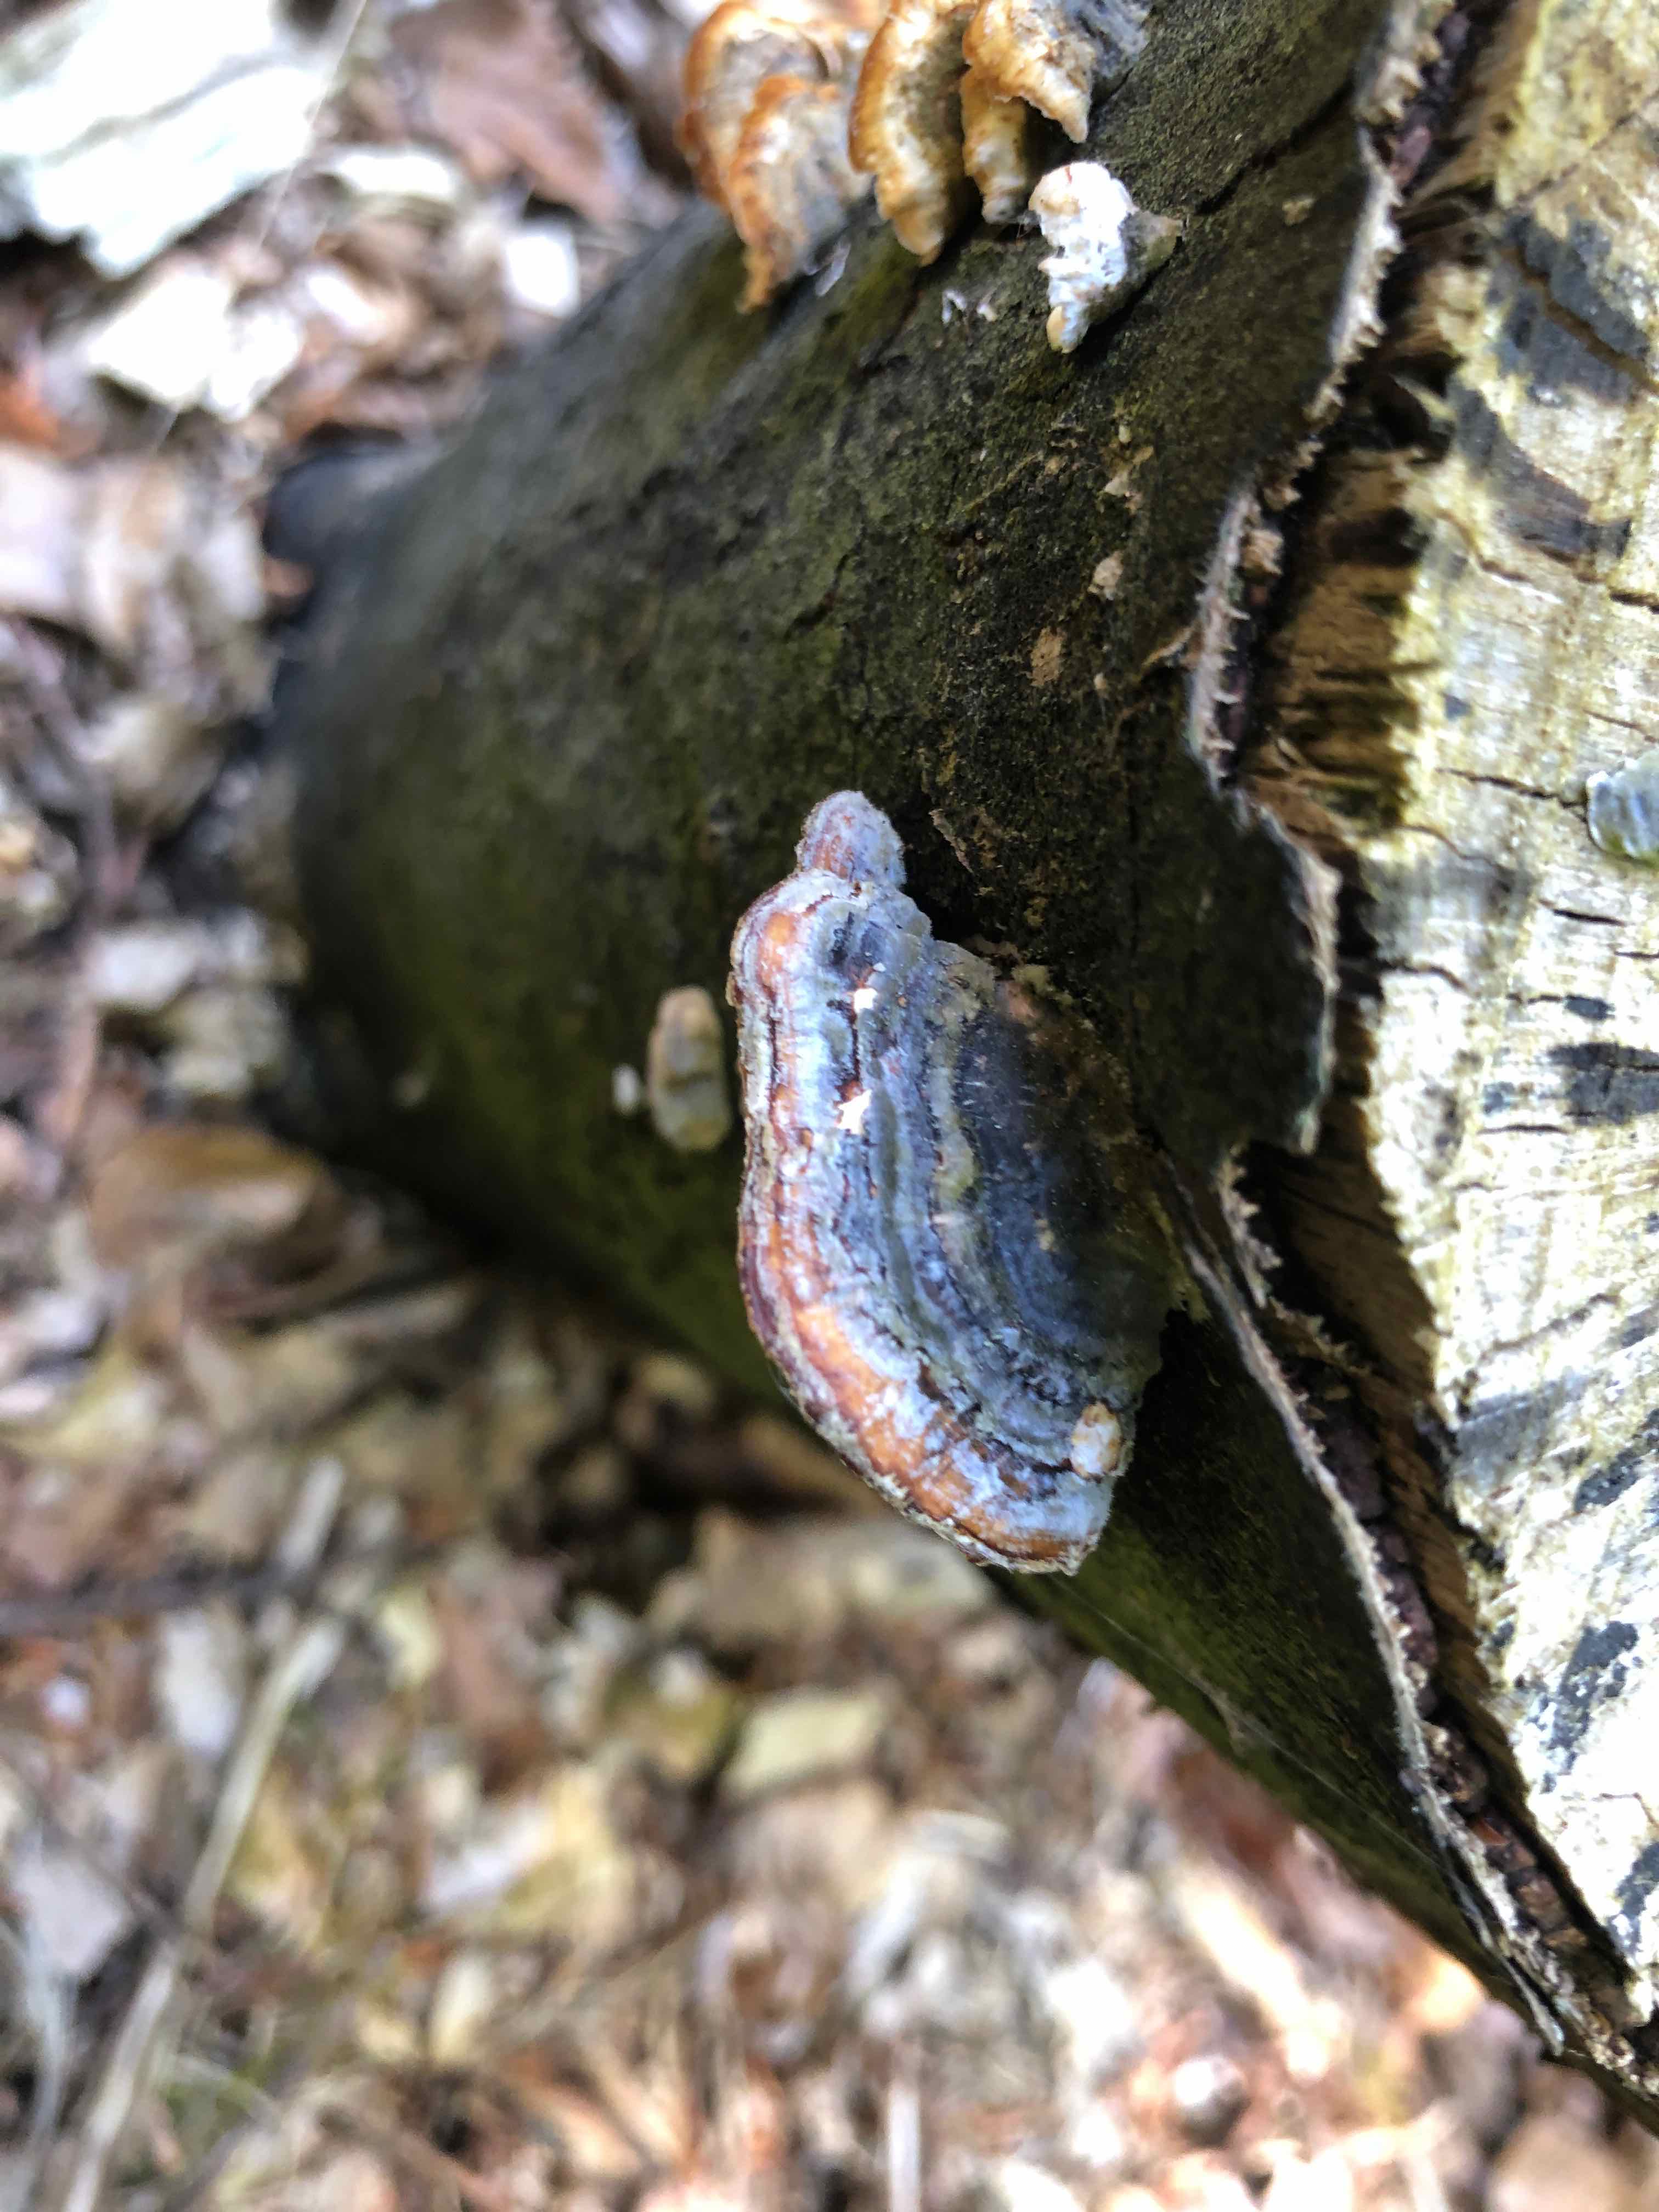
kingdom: Fungi
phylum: Basidiomycota
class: Agaricomycetes
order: Polyporales
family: Polyporaceae
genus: Trametes
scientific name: Trametes versicolor
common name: broget læderporesvamp
